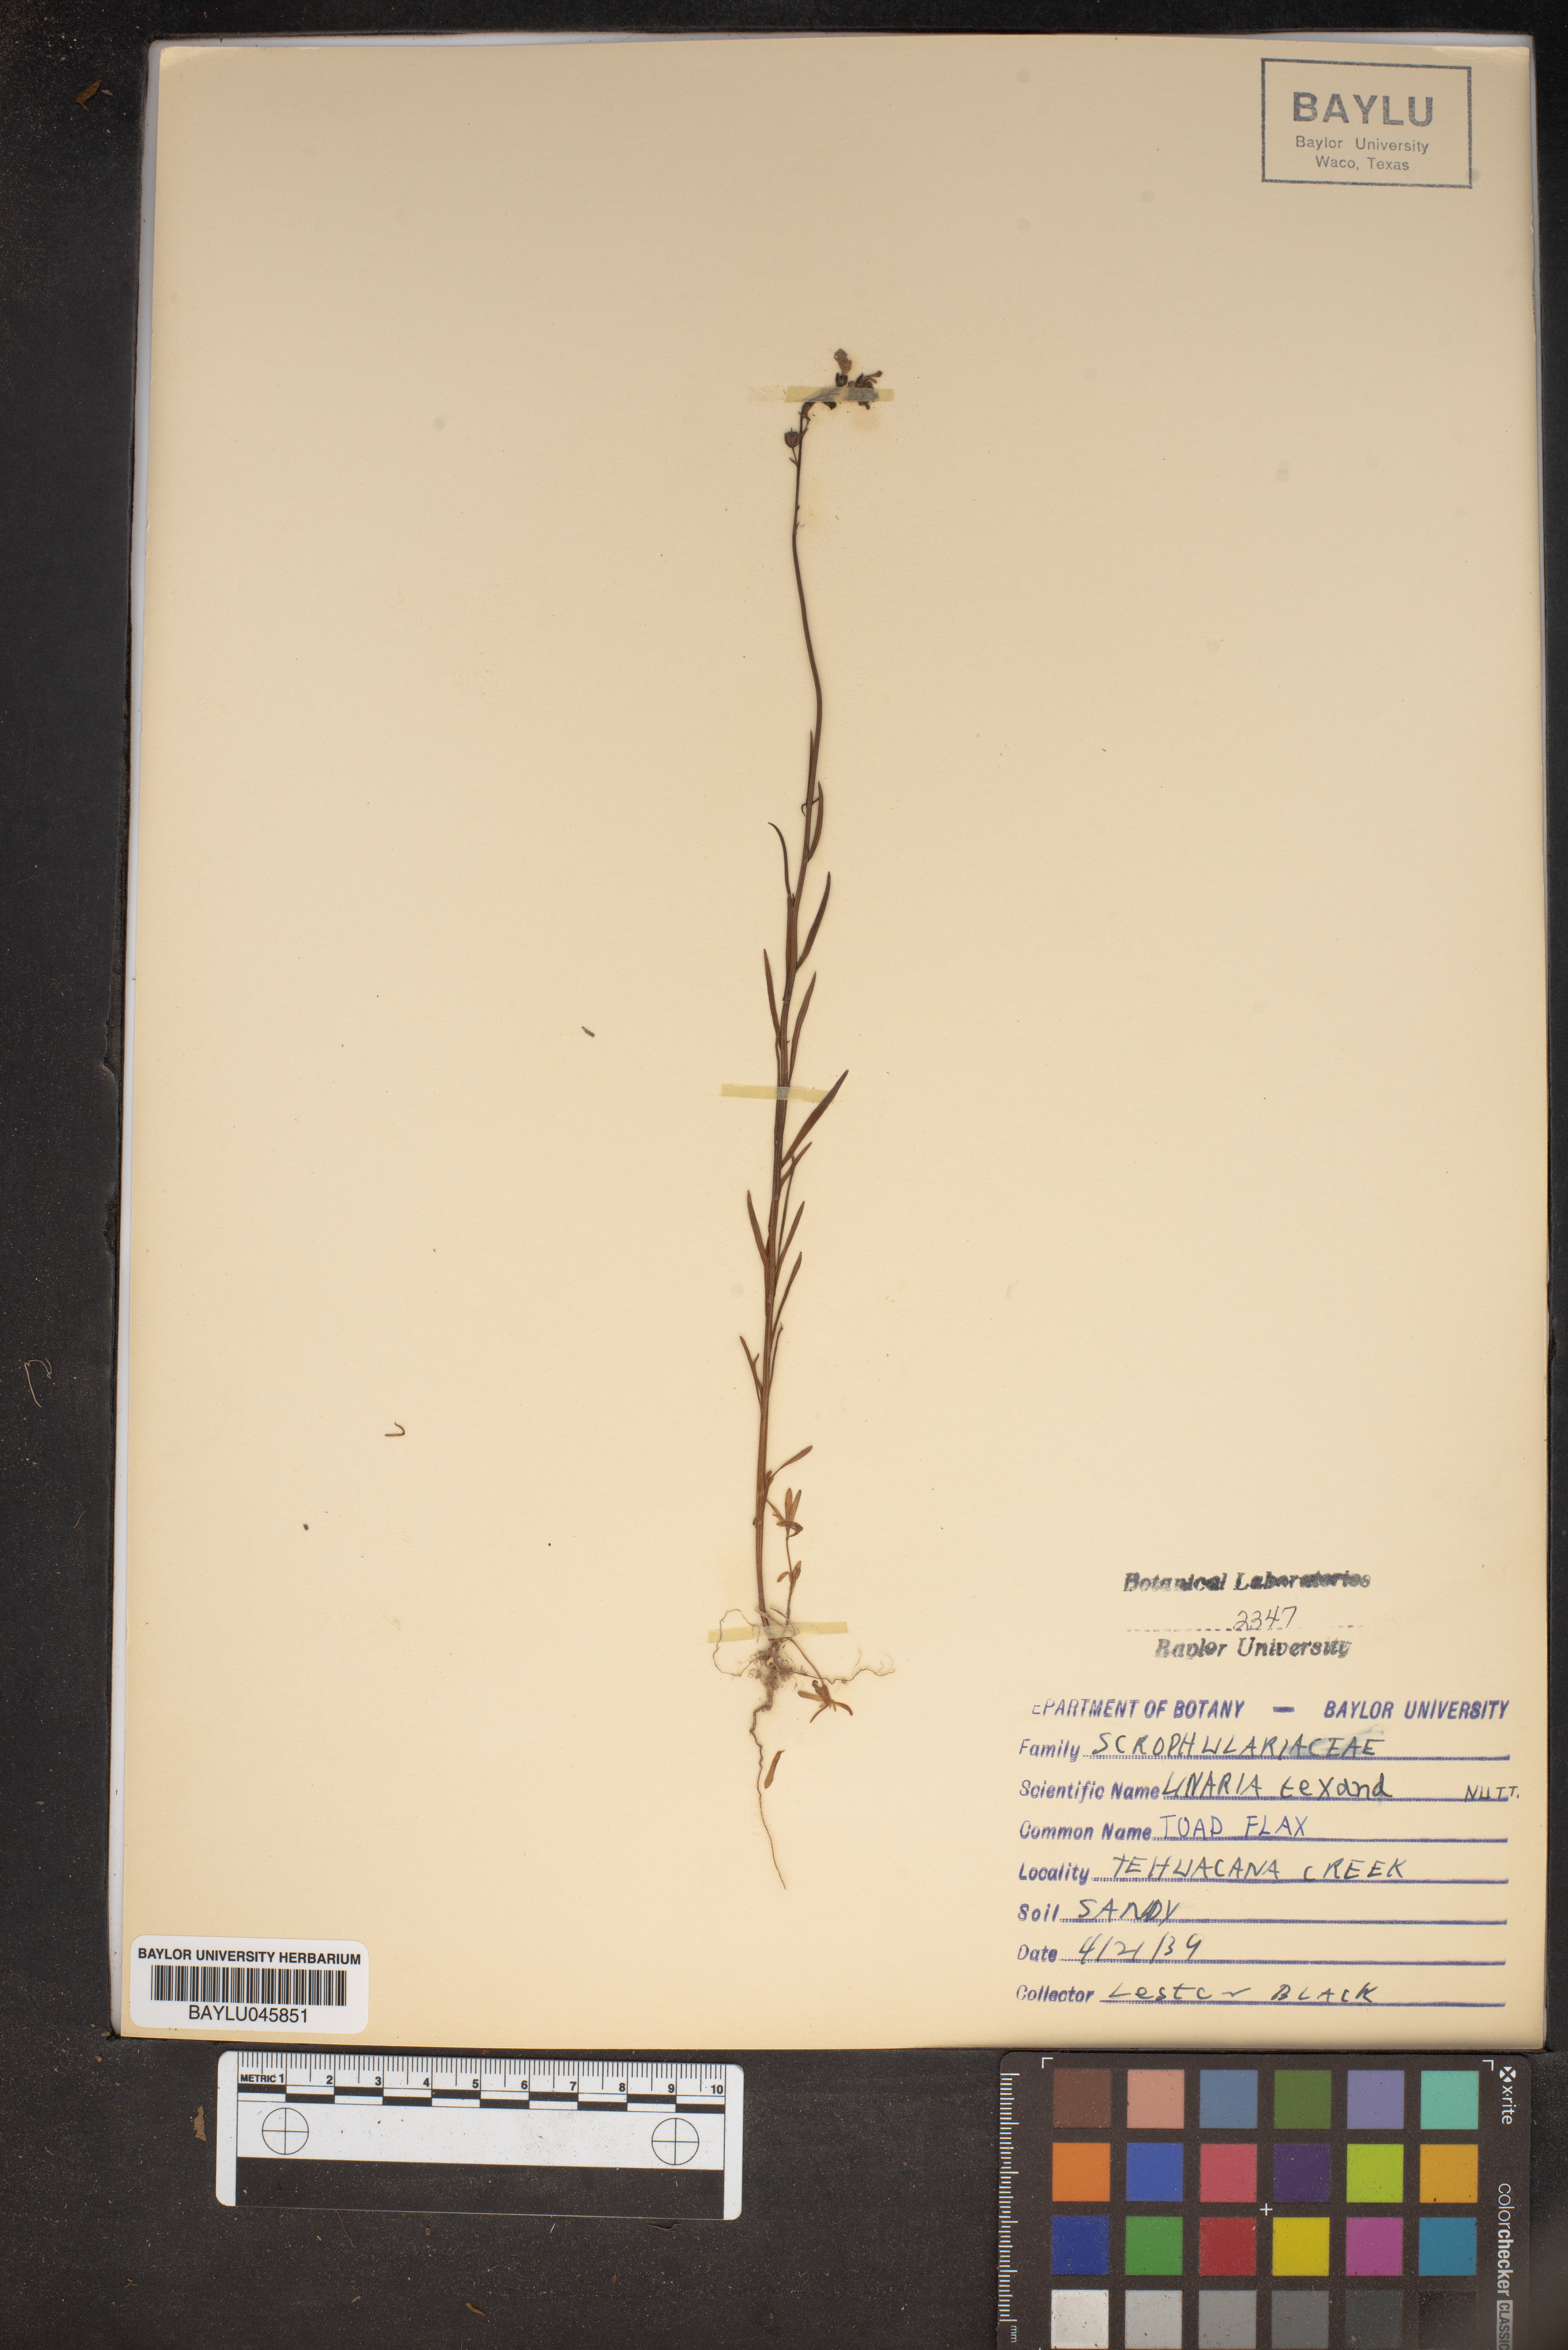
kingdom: Plantae
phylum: Tracheophyta
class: Magnoliopsida
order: Lamiales
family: Plantaginaceae
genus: Nuttallanthus
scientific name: Nuttallanthus texanus
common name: Texas toadflax
